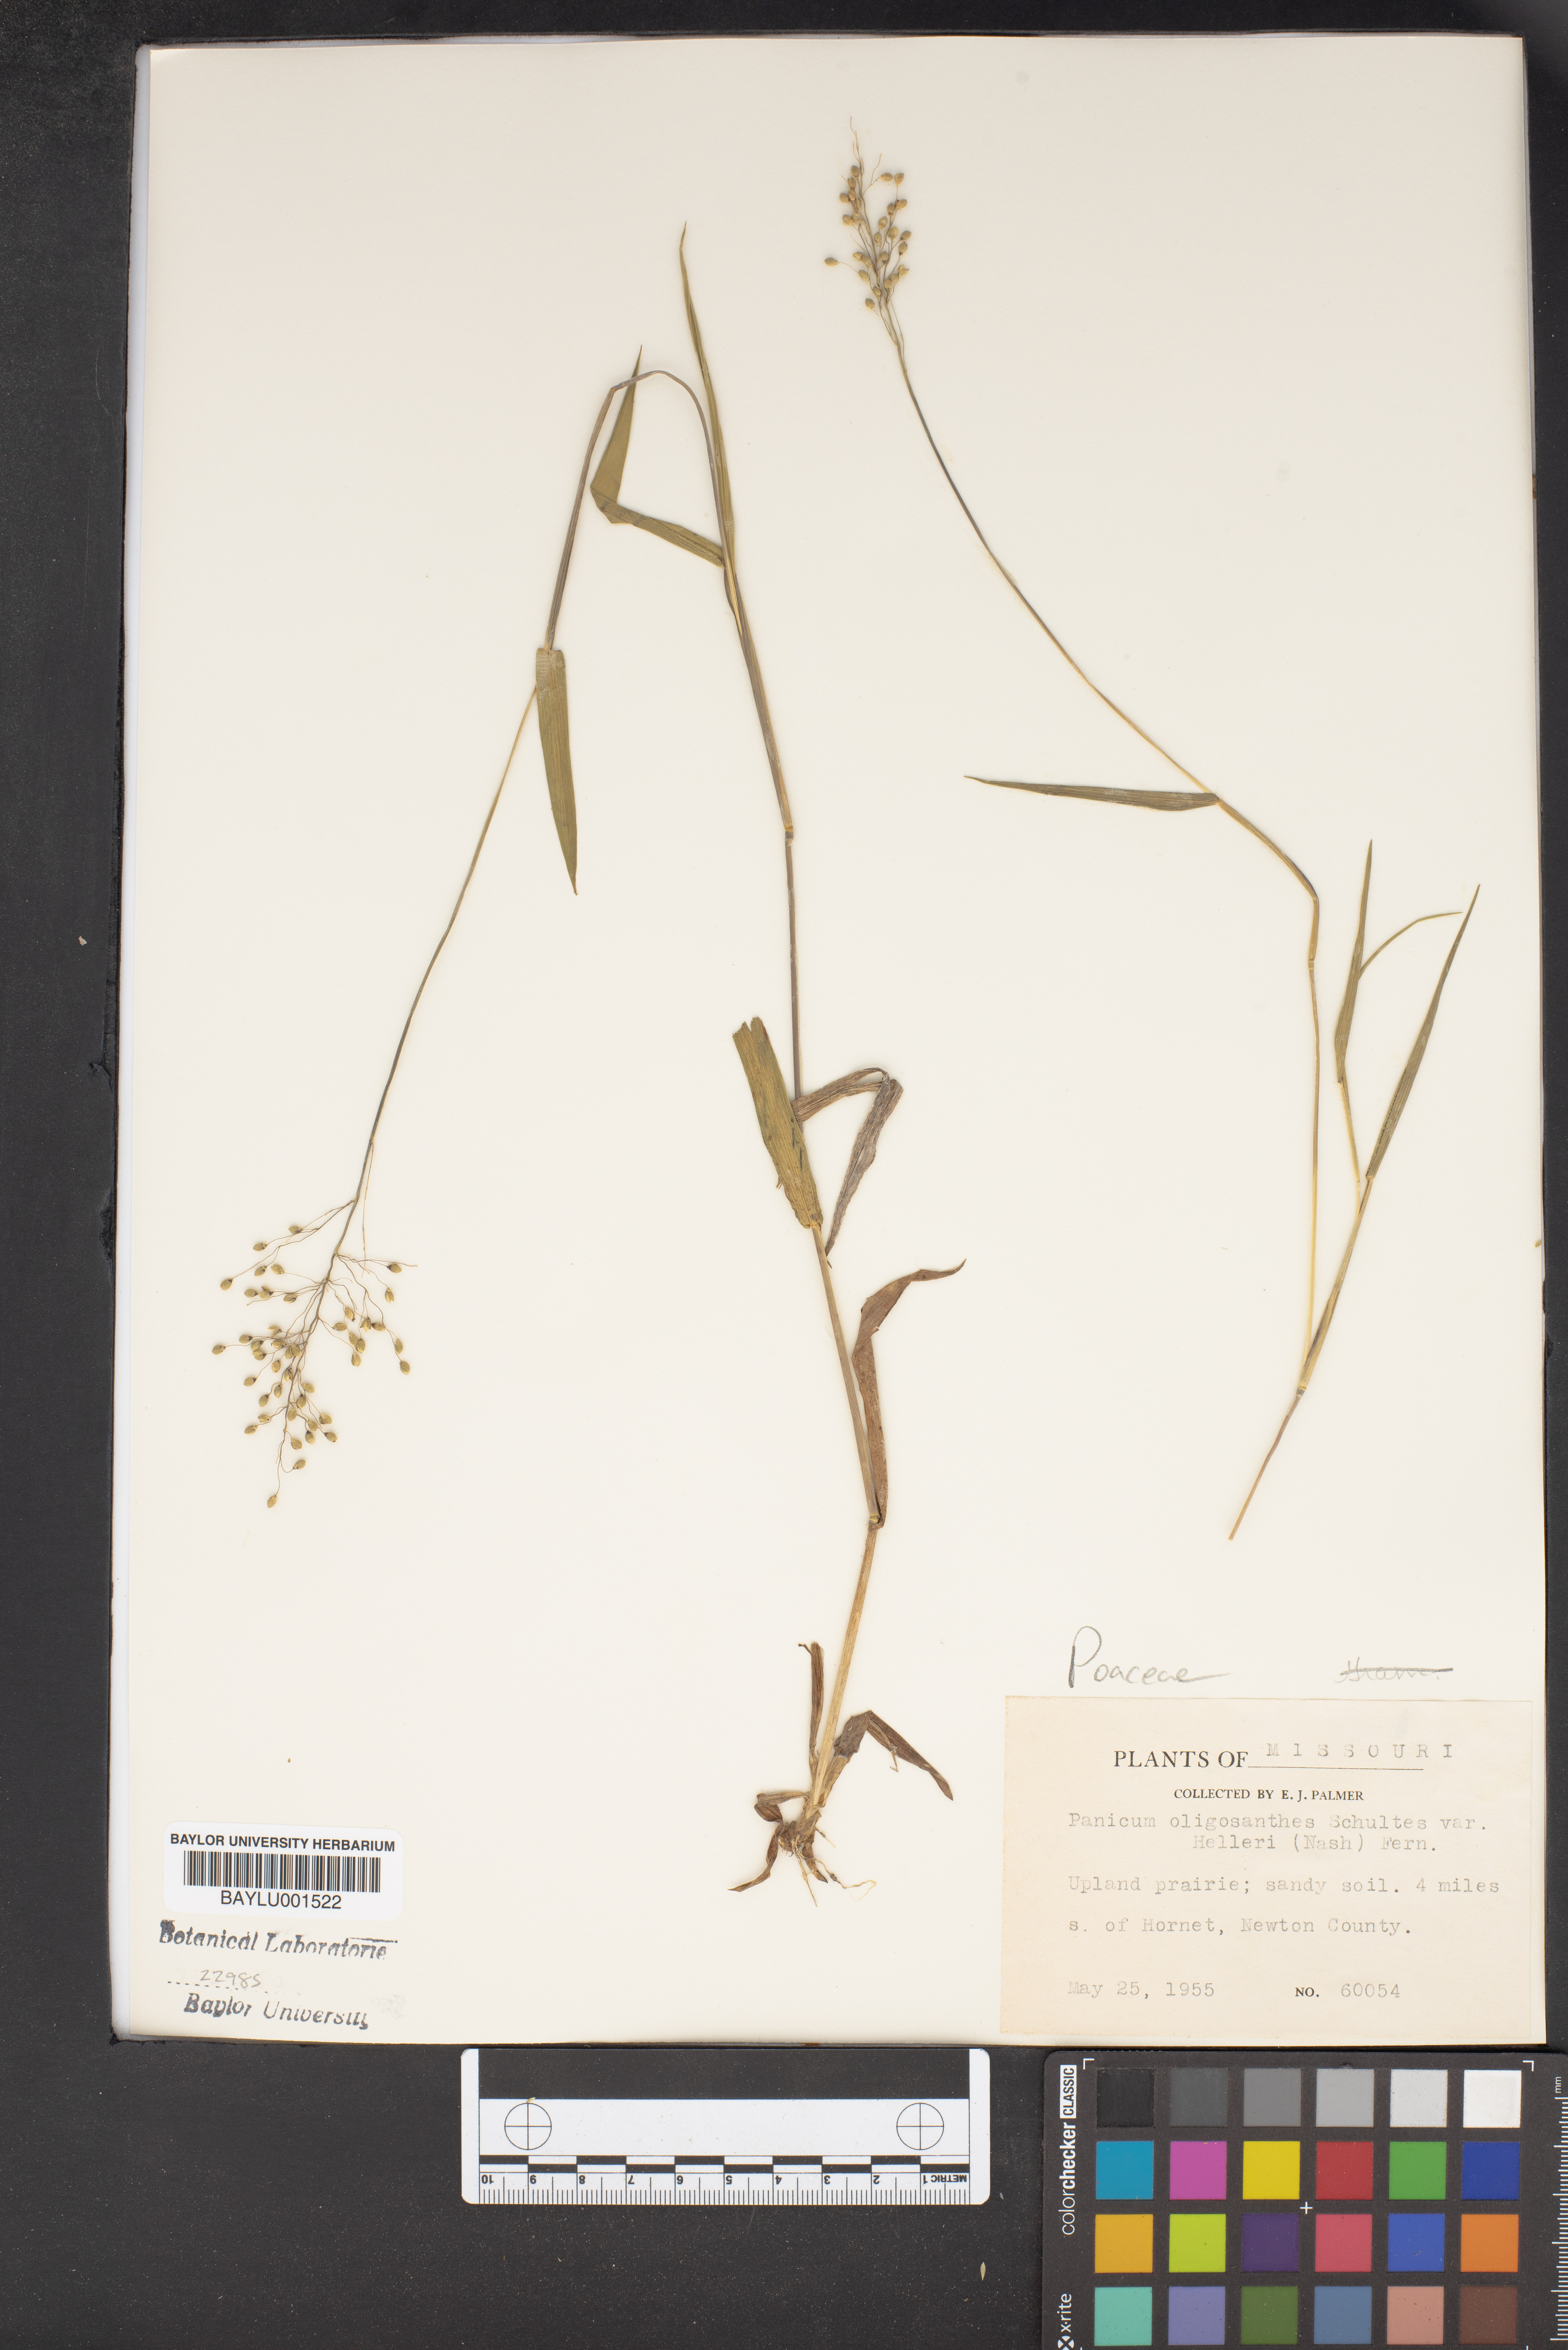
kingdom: Plantae
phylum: Tracheophyta
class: Liliopsida
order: Poales
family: Poaceae
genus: Dichanthelium
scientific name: Dichanthelium oligosanthes
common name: Few-anther obscuregrass
